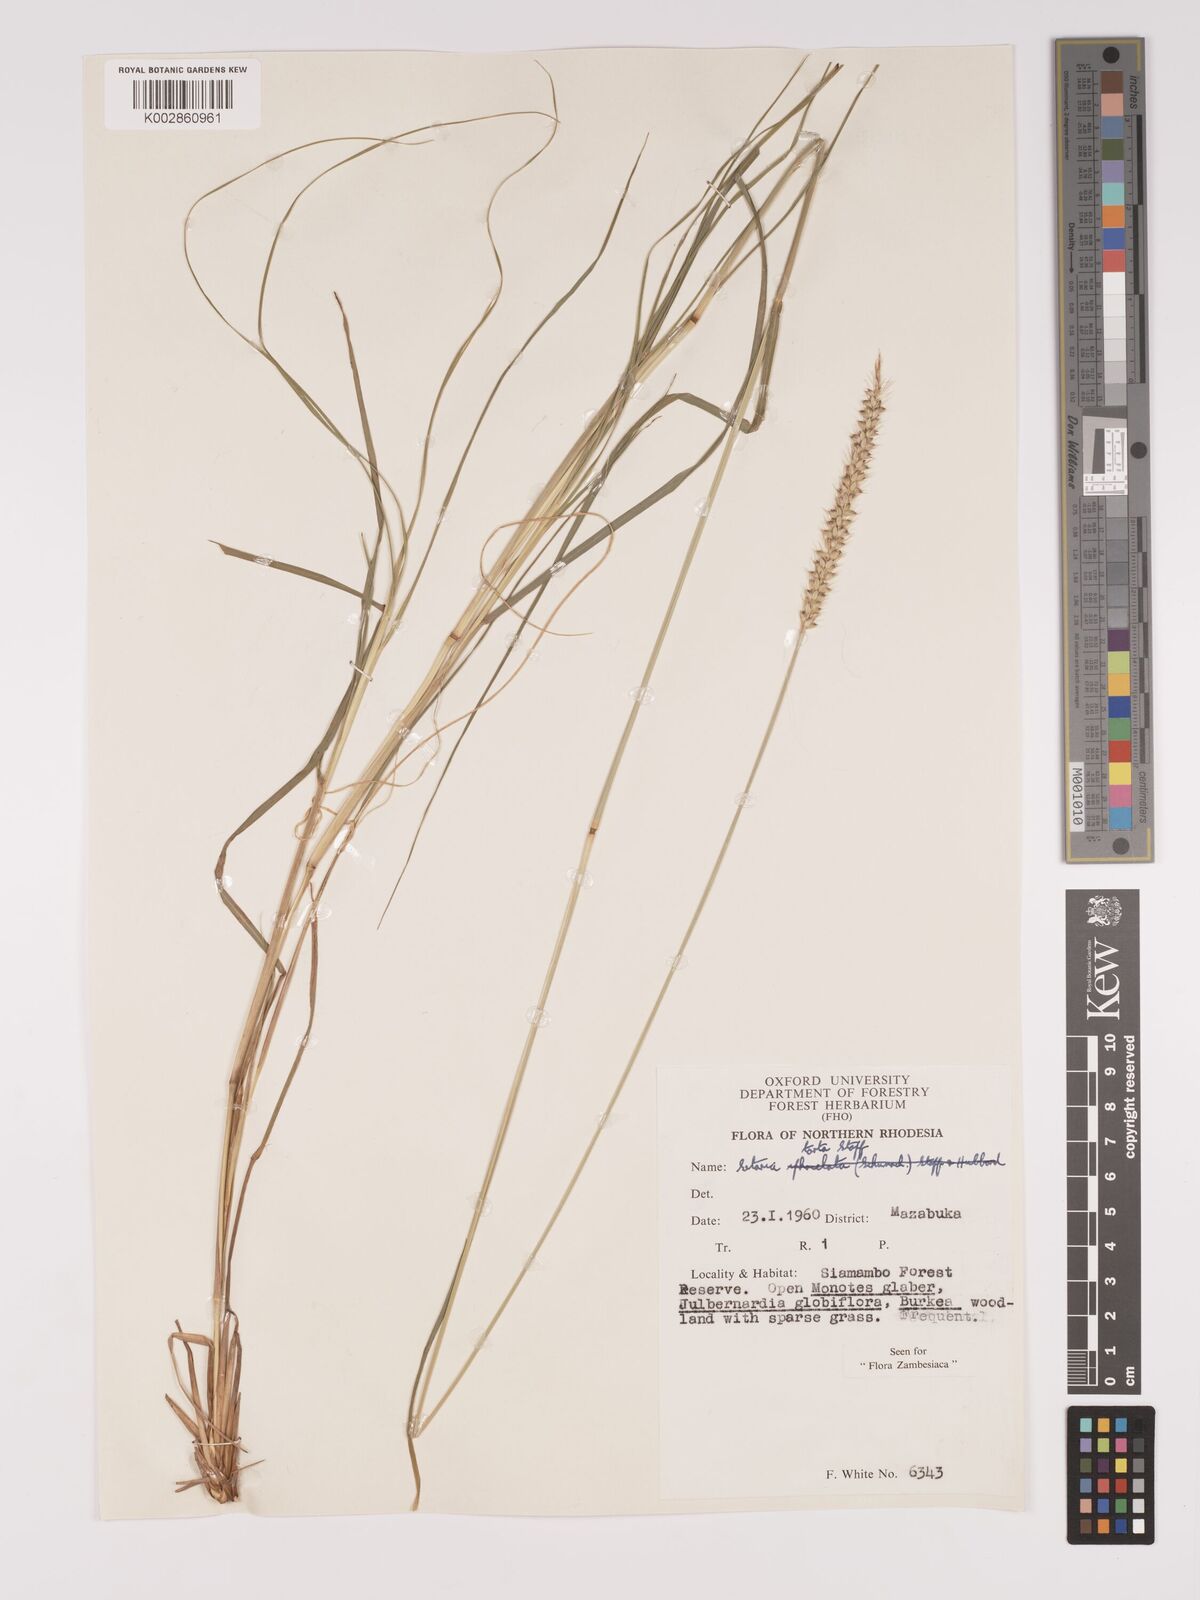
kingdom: Plantae
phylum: Tracheophyta
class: Liliopsida
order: Poales
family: Poaceae
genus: Setaria
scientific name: Setaria
